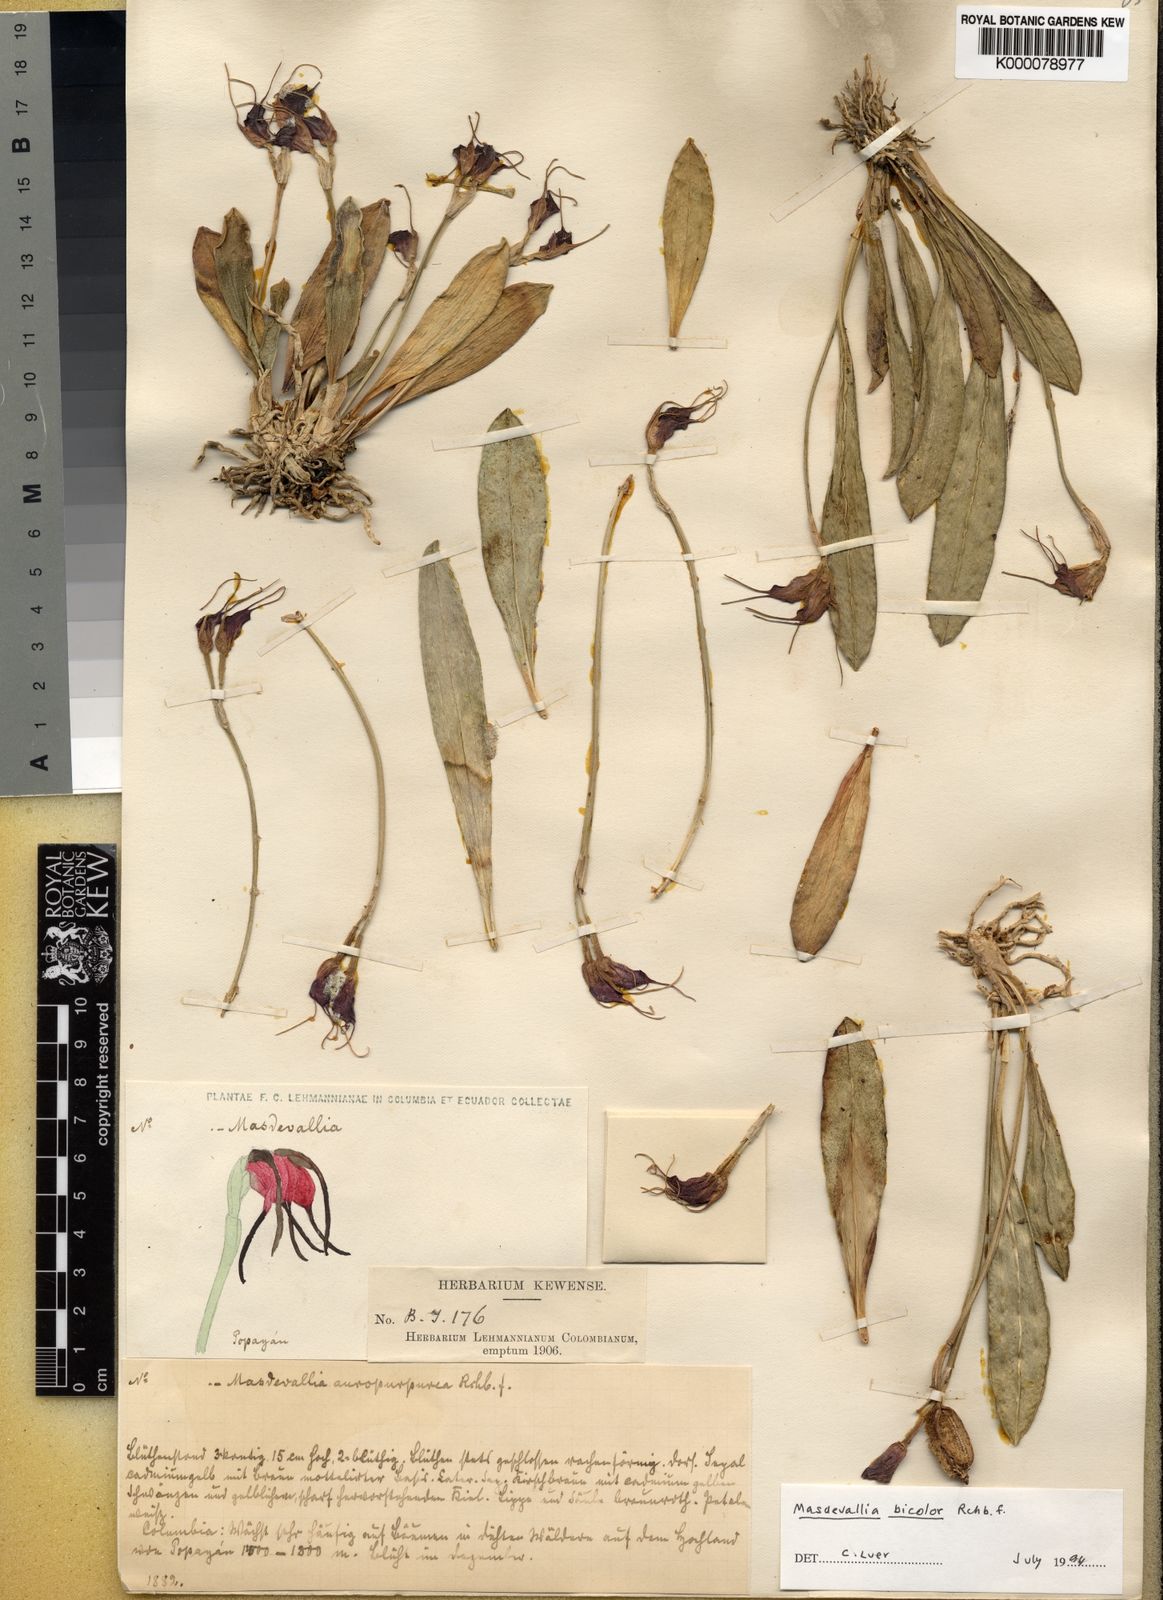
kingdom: Plantae
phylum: Tracheophyta
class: Liliopsida
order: Asparagales
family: Orchidaceae
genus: Masdevallia
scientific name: Masdevallia
